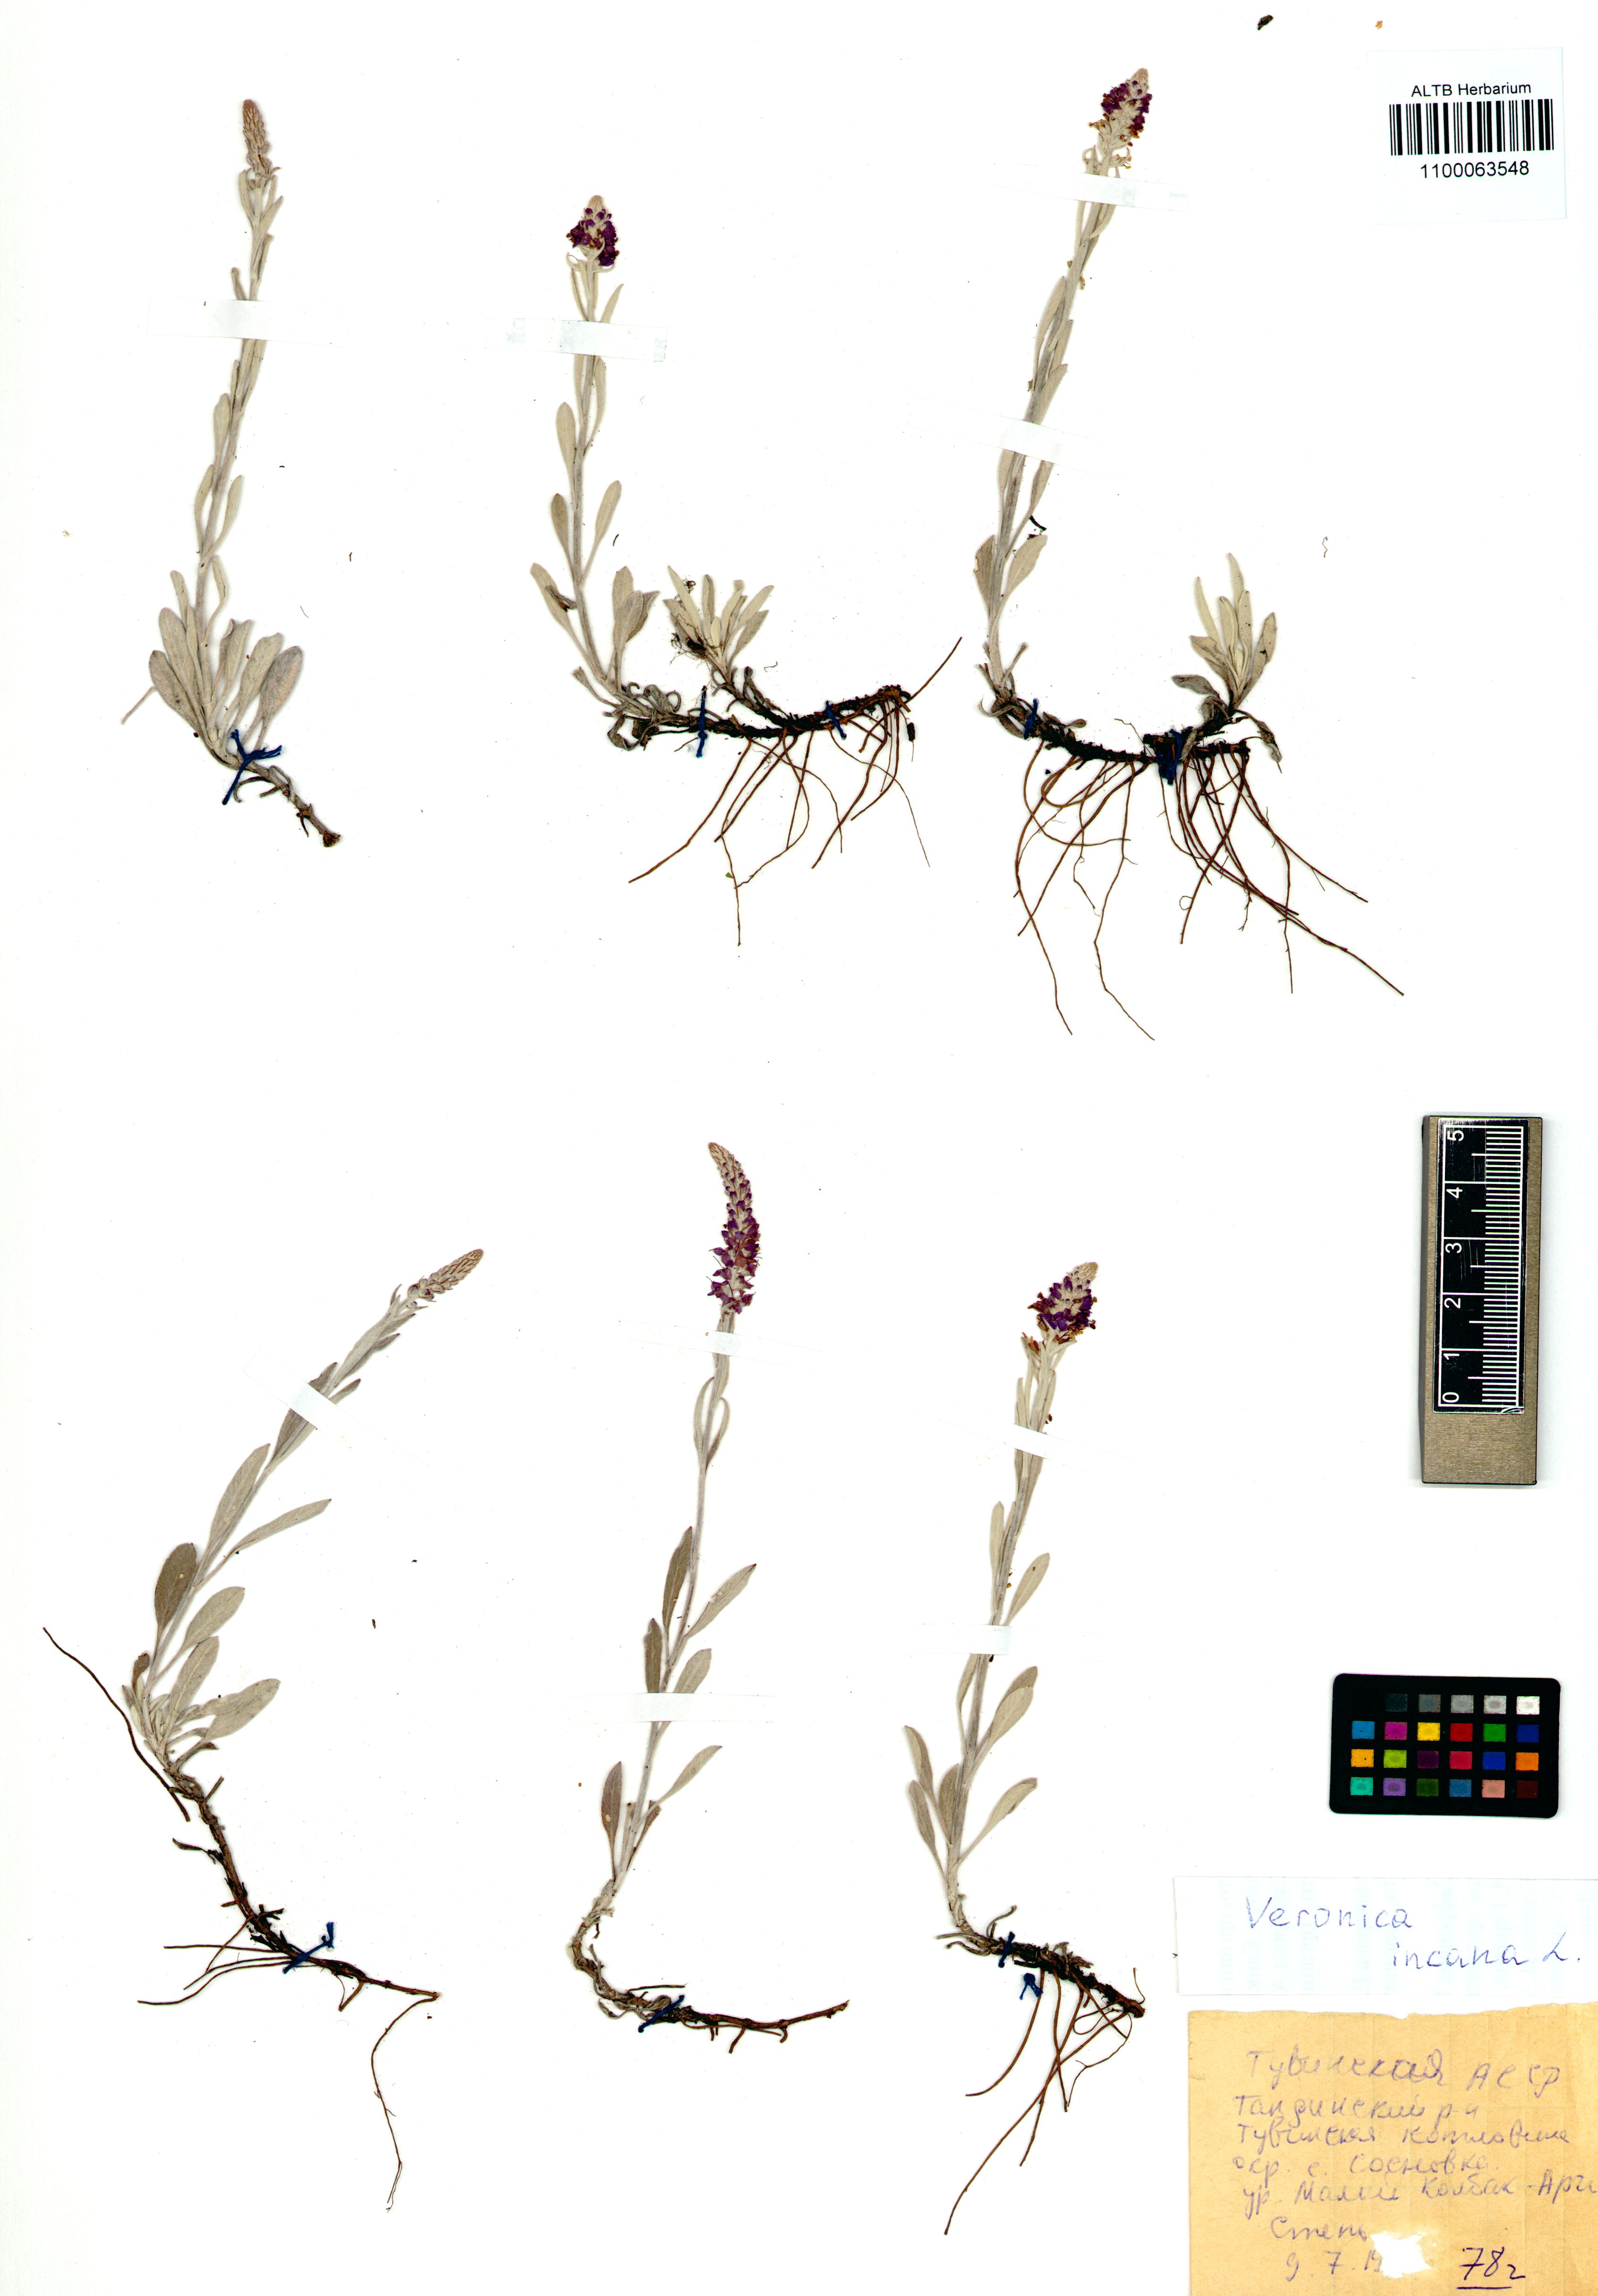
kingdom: Plantae
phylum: Tracheophyta
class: Magnoliopsida
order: Lamiales
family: Plantaginaceae
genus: Veronica
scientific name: Veronica incana
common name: Silver speedwell
